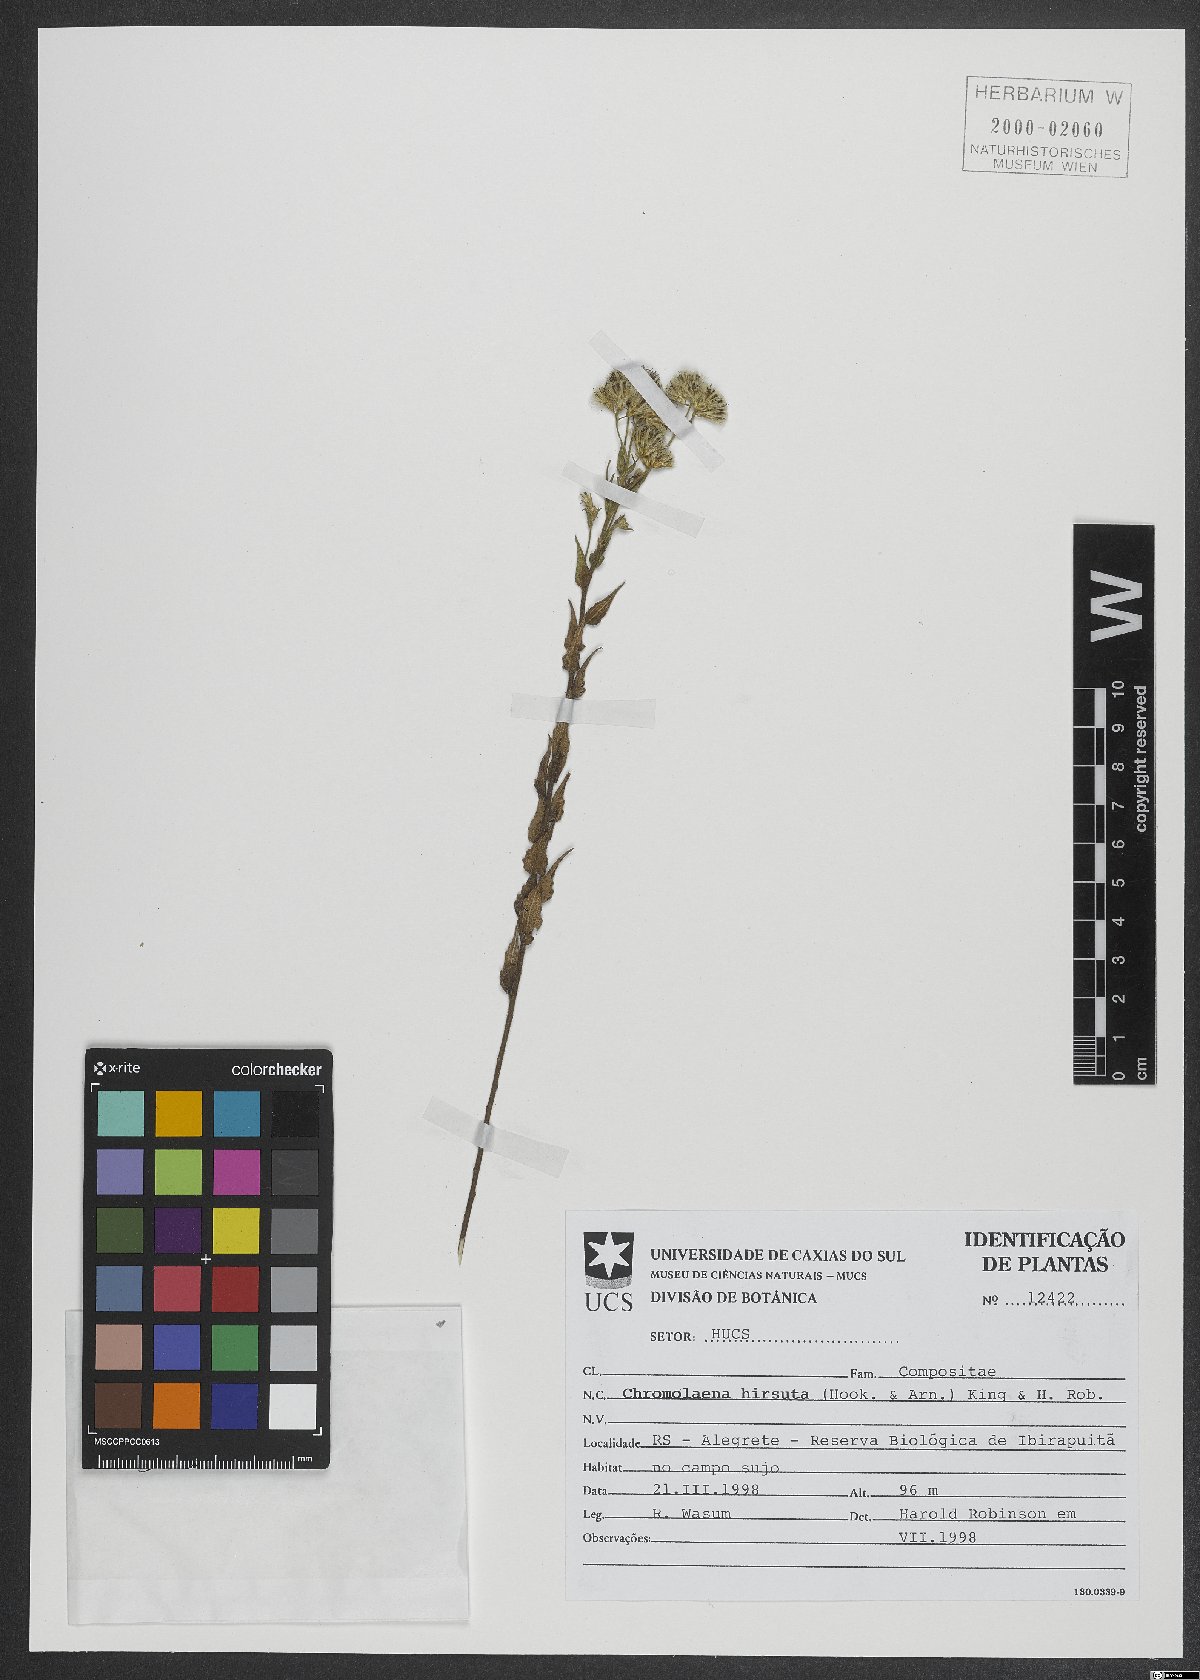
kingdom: Plantae
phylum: Tracheophyta
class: Magnoliopsida
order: Asterales
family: Asteraceae
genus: Chromolaena
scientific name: Chromolaena hirsuta
